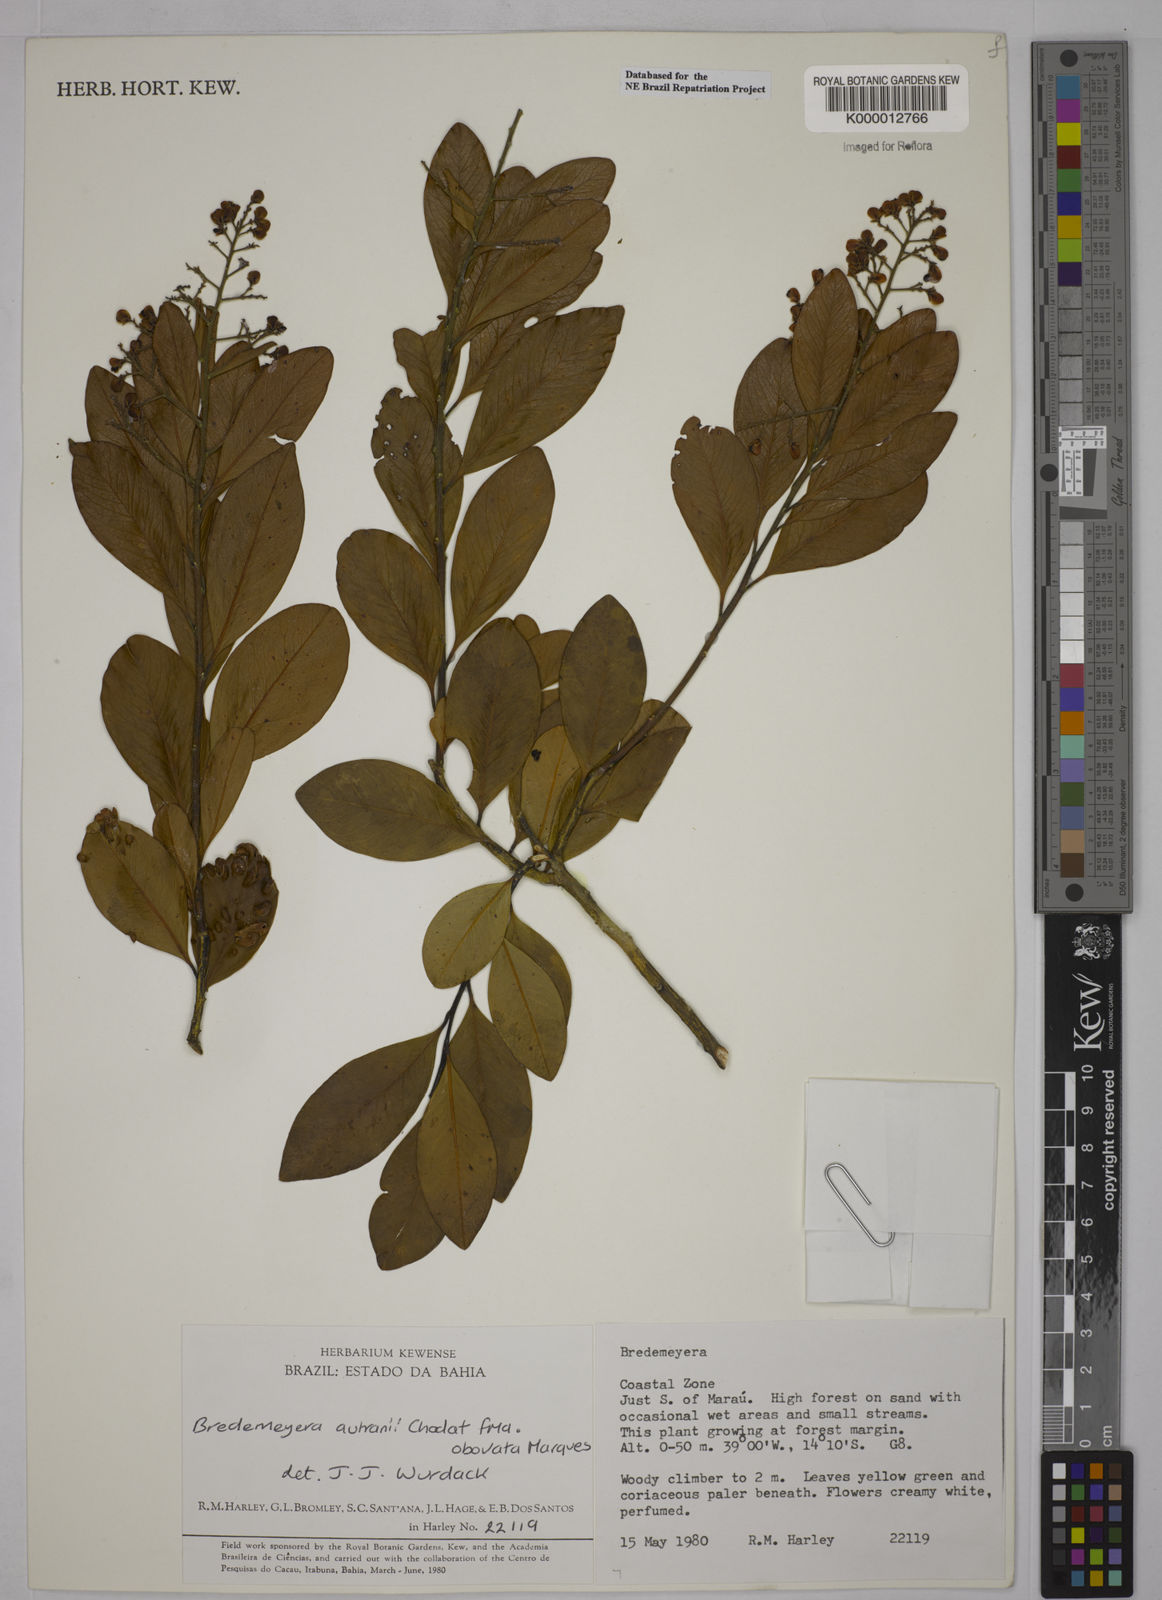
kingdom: Plantae
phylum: Tracheophyta
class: Magnoliopsida
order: Fabales
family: Polygalaceae
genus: Bredemeyera
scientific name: Bredemeyera disperma
